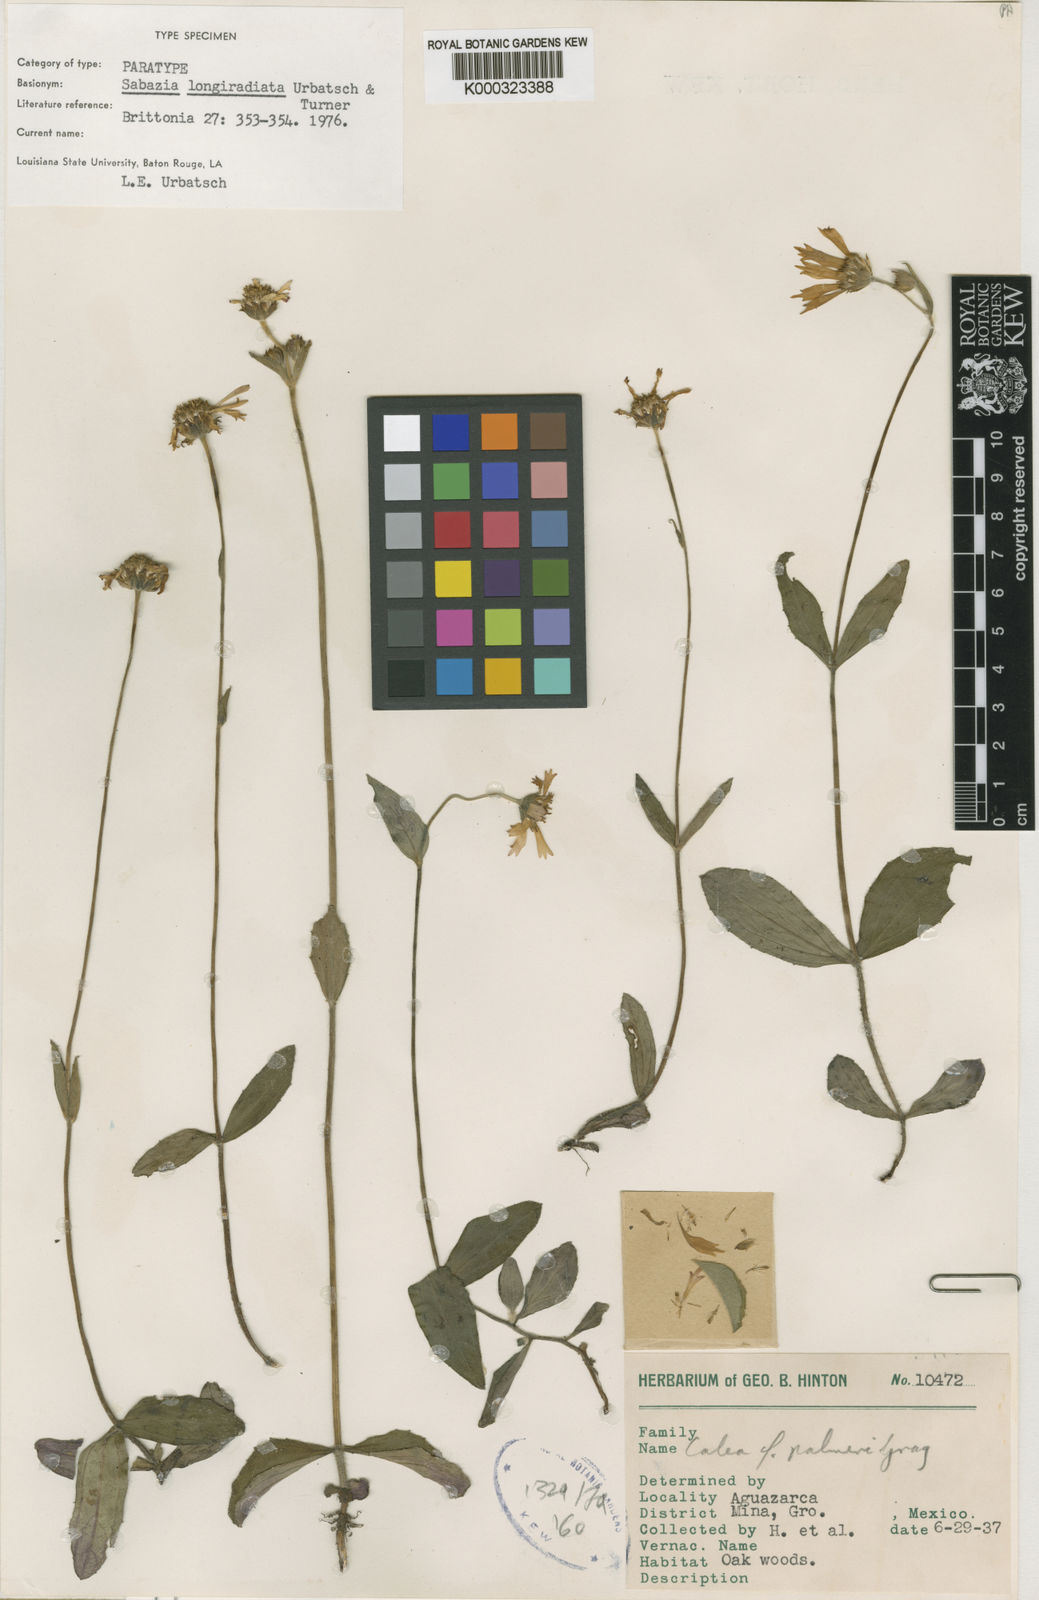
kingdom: Plantae
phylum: Tracheophyta
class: Magnoliopsida
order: Asterales
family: Asteraceae
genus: Alloispermum
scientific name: Alloispermum longiradiatum
